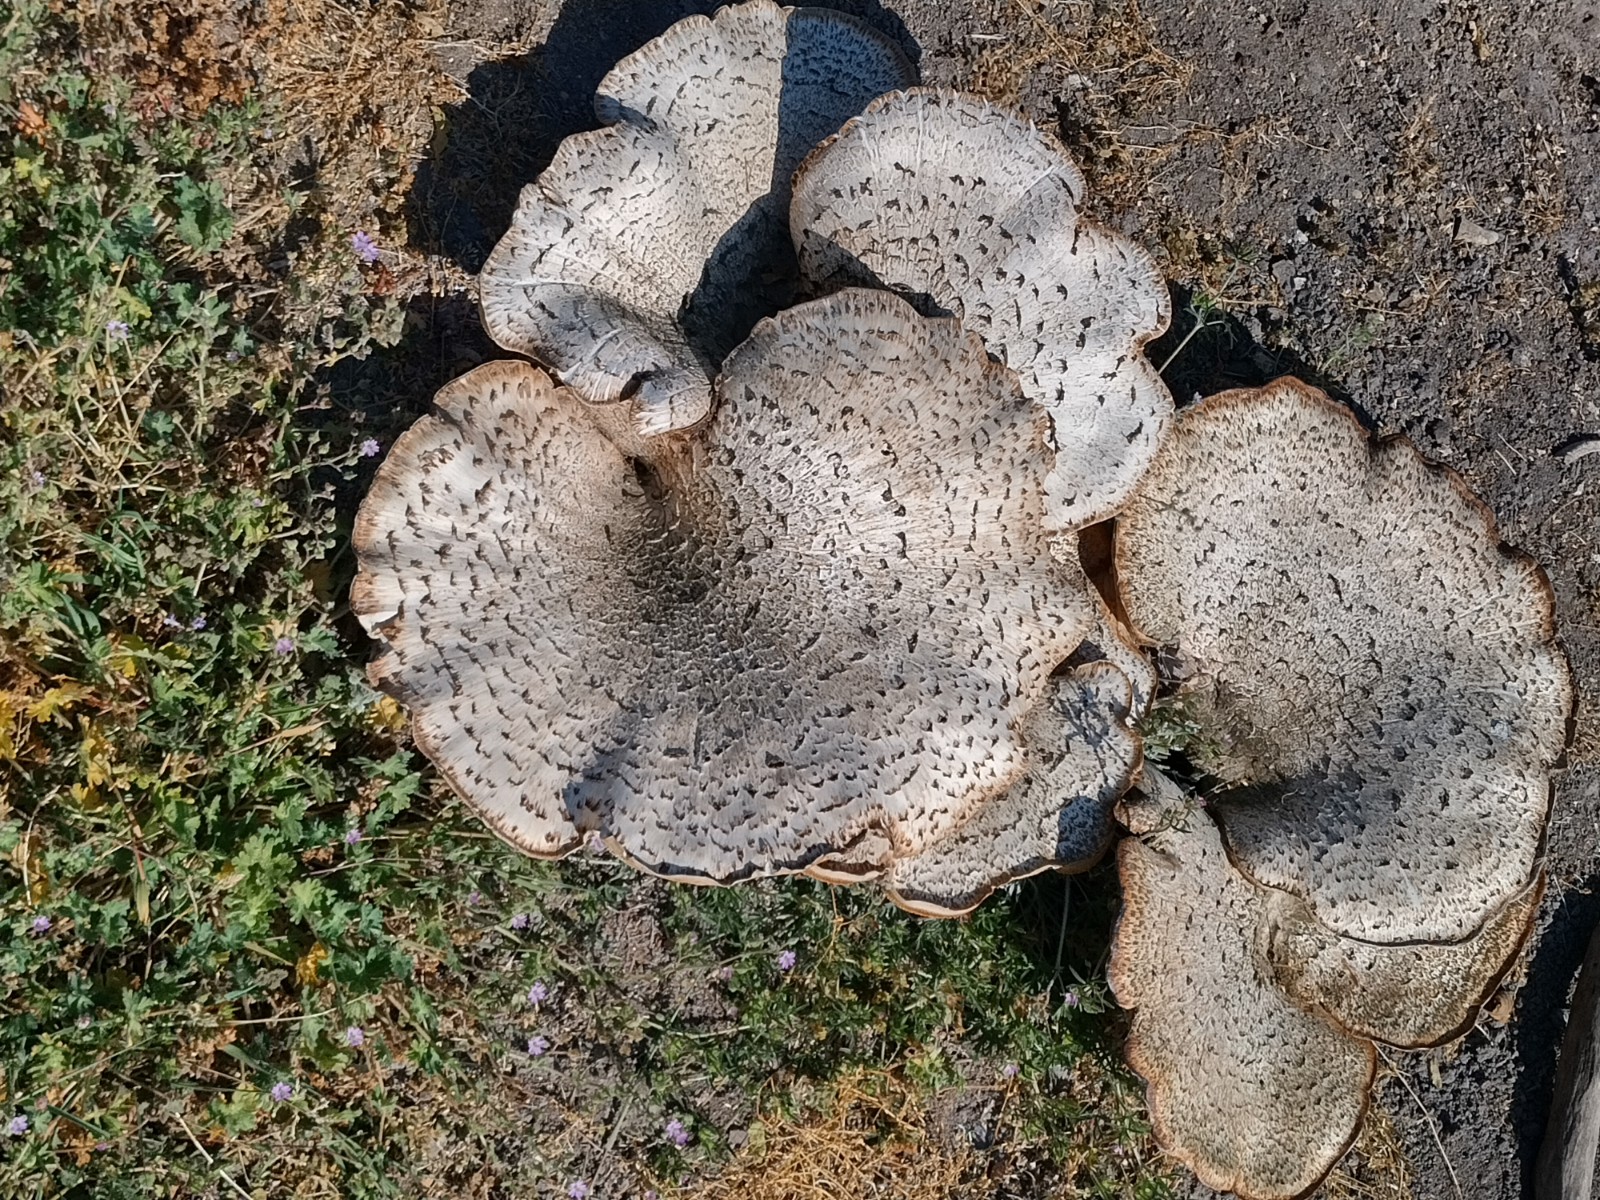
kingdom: Fungi
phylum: Basidiomycota
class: Agaricomycetes
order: Polyporales
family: Polyporaceae
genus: Cerioporus
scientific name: Cerioporus squamosus
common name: skællet stilkporesvamp
